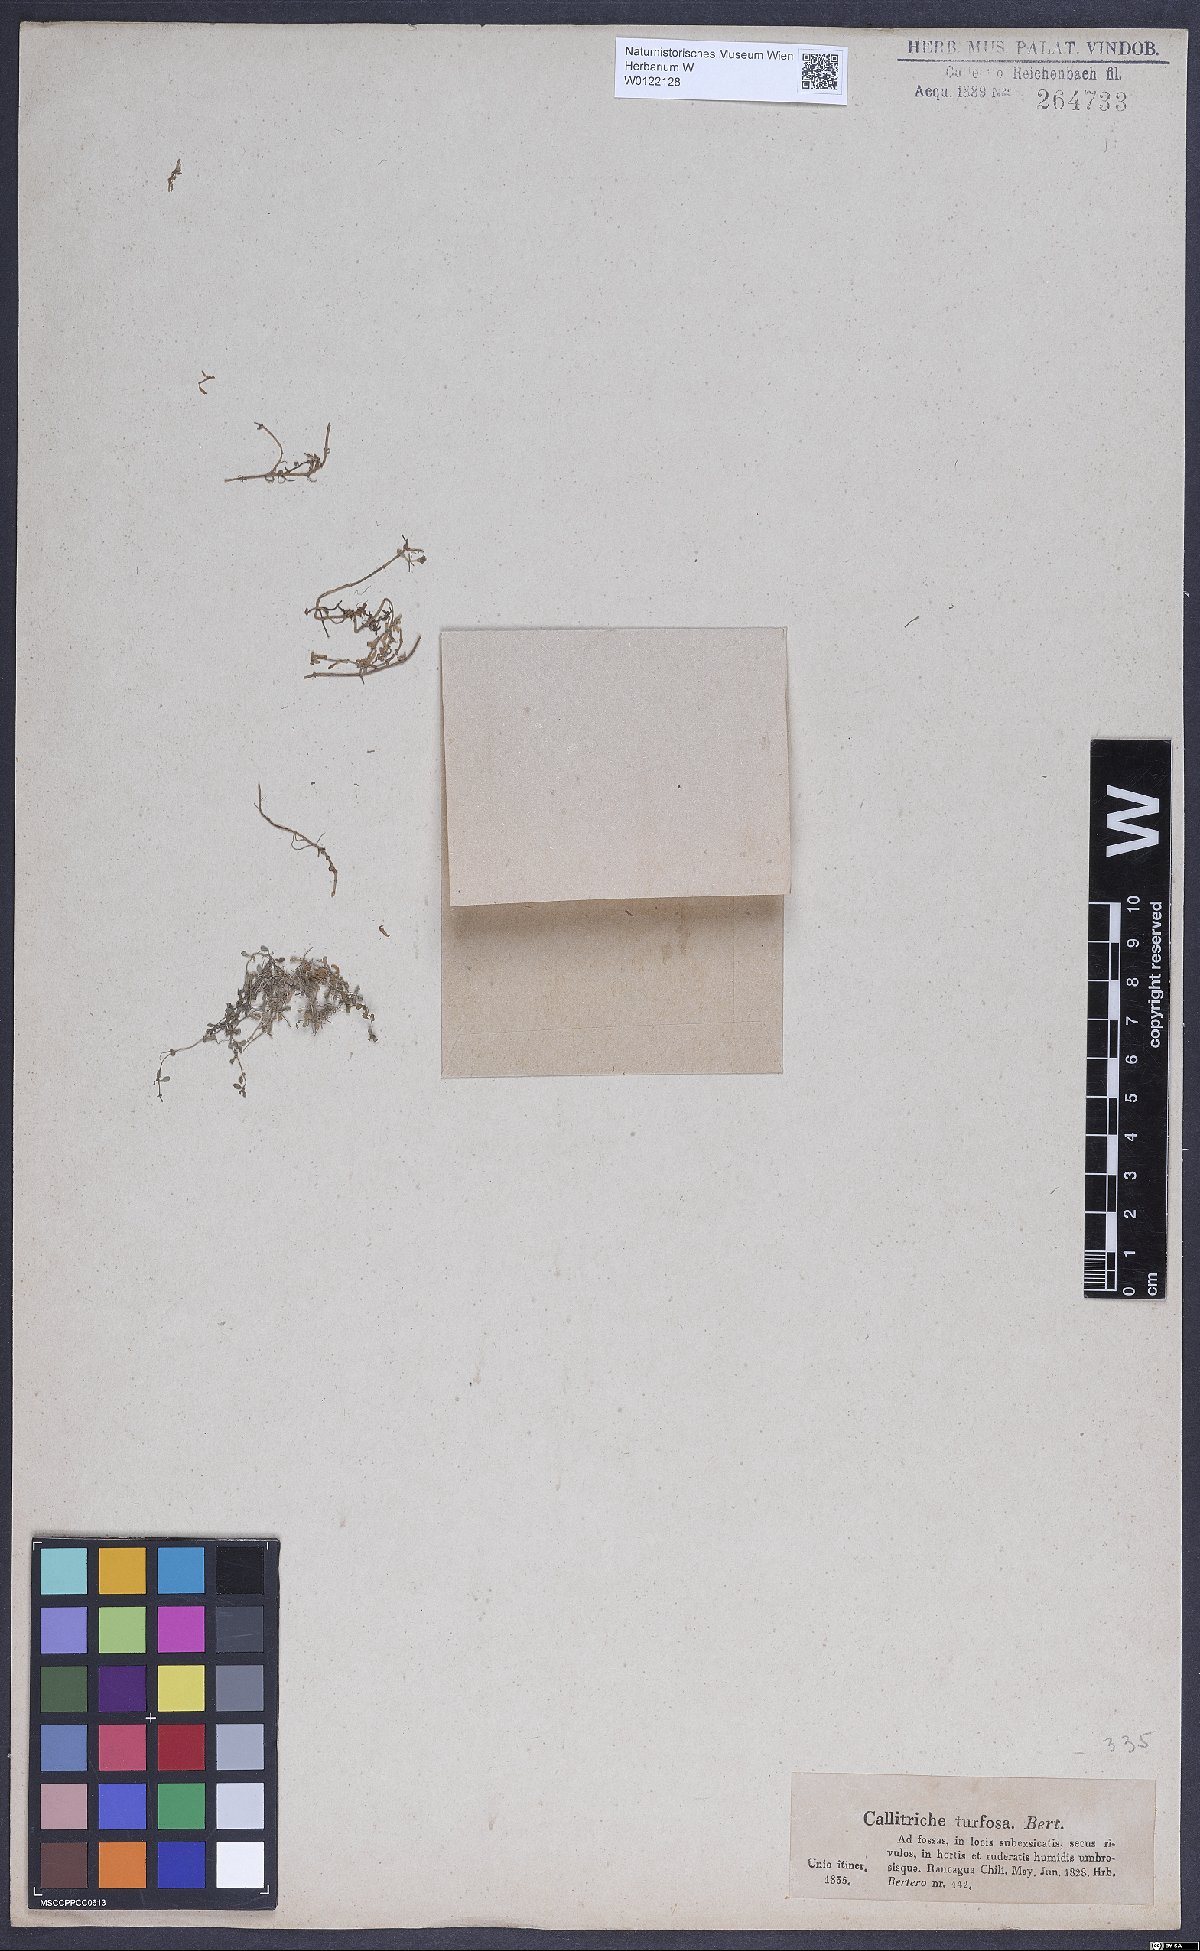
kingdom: Plantae
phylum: Tracheophyta
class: Magnoliopsida
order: Lamiales
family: Plantaginaceae
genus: Callitriche
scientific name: Callitriche turfosa
